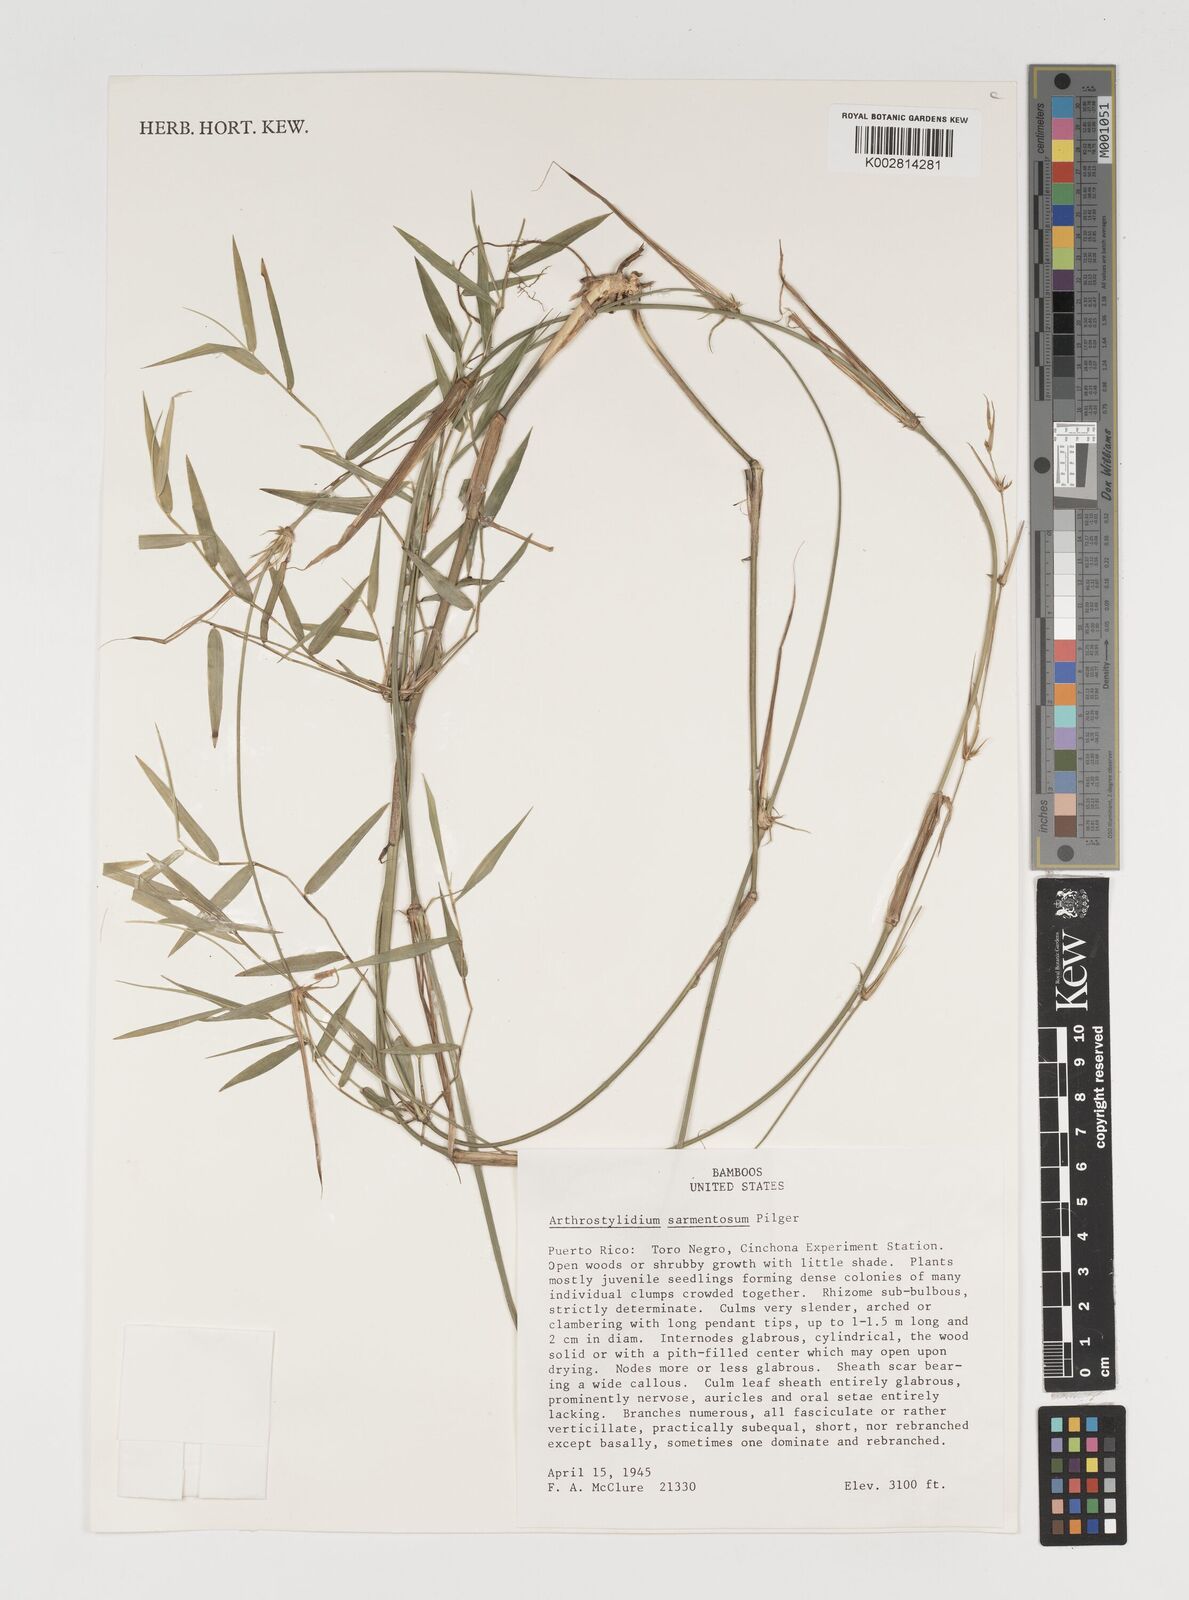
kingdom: Plantae
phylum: Tracheophyta
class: Liliopsida
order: Poales
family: Poaceae
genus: Arthrostylidium
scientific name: Arthrostylidium sarmentosum
